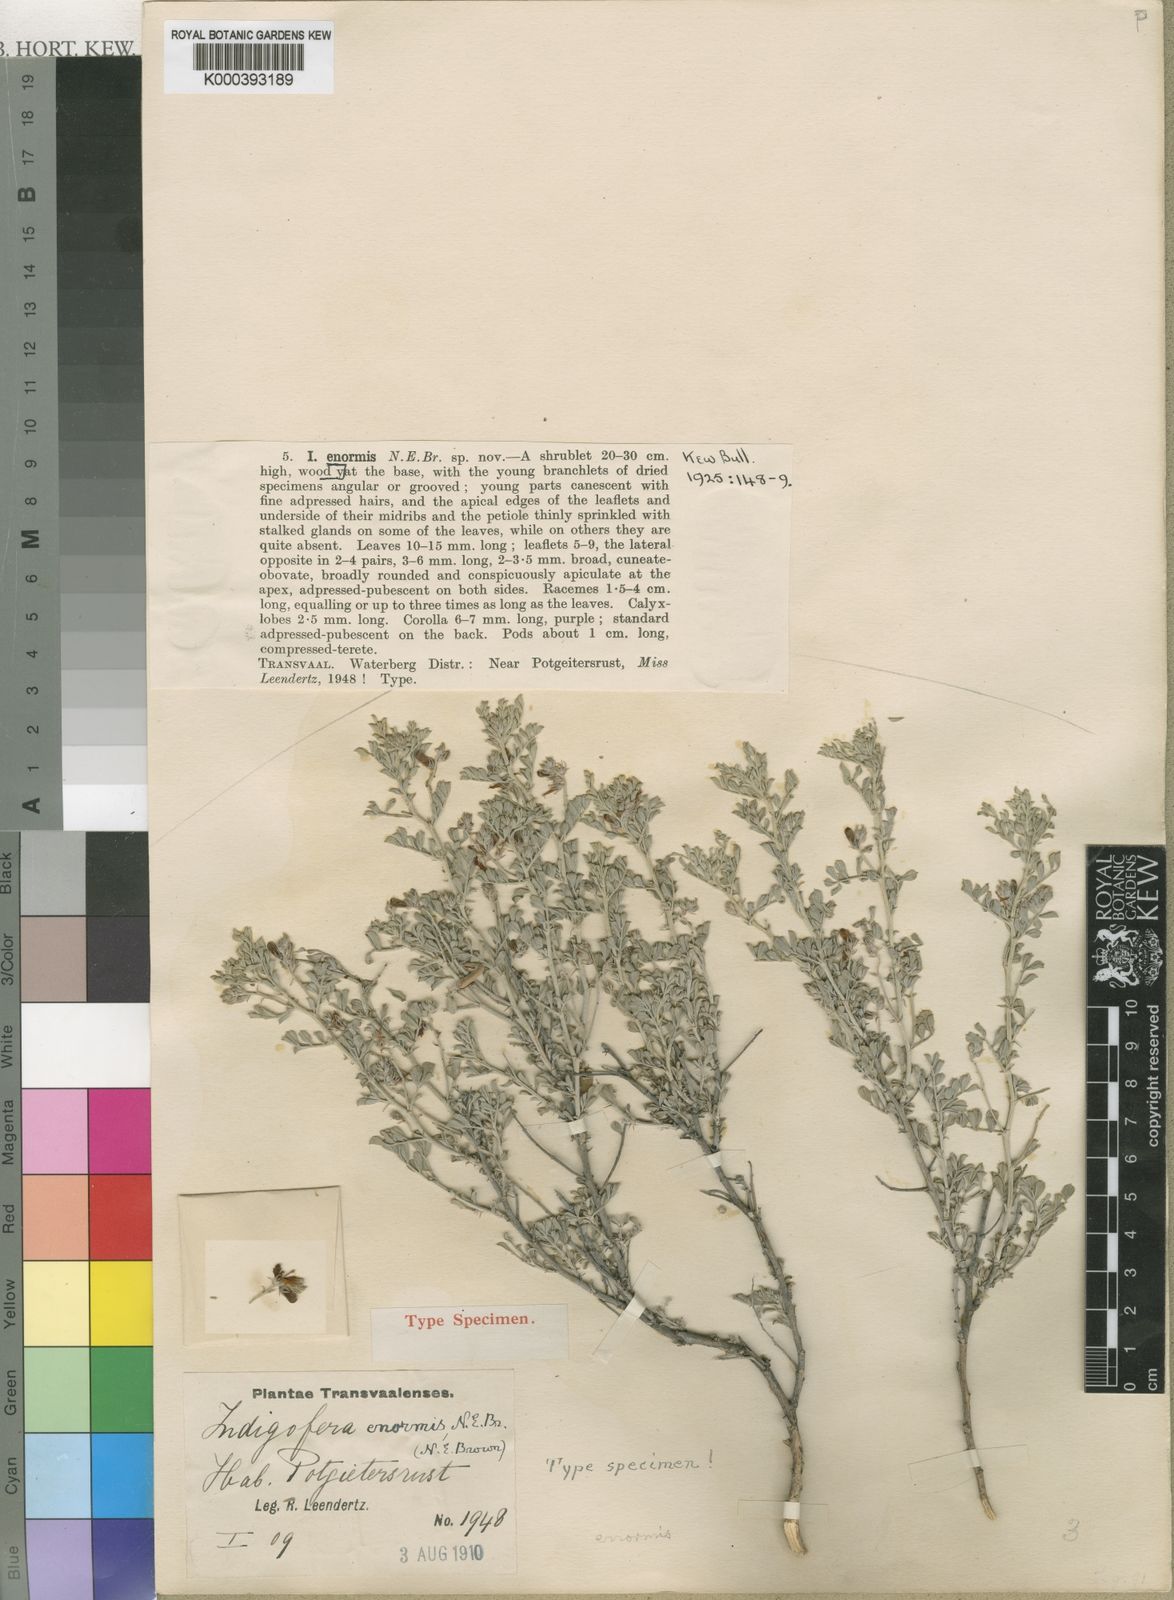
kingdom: Plantae
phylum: Tracheophyta
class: Magnoliopsida
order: Fabales
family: Fabaceae
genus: Indigofera
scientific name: Indigofera enormis
